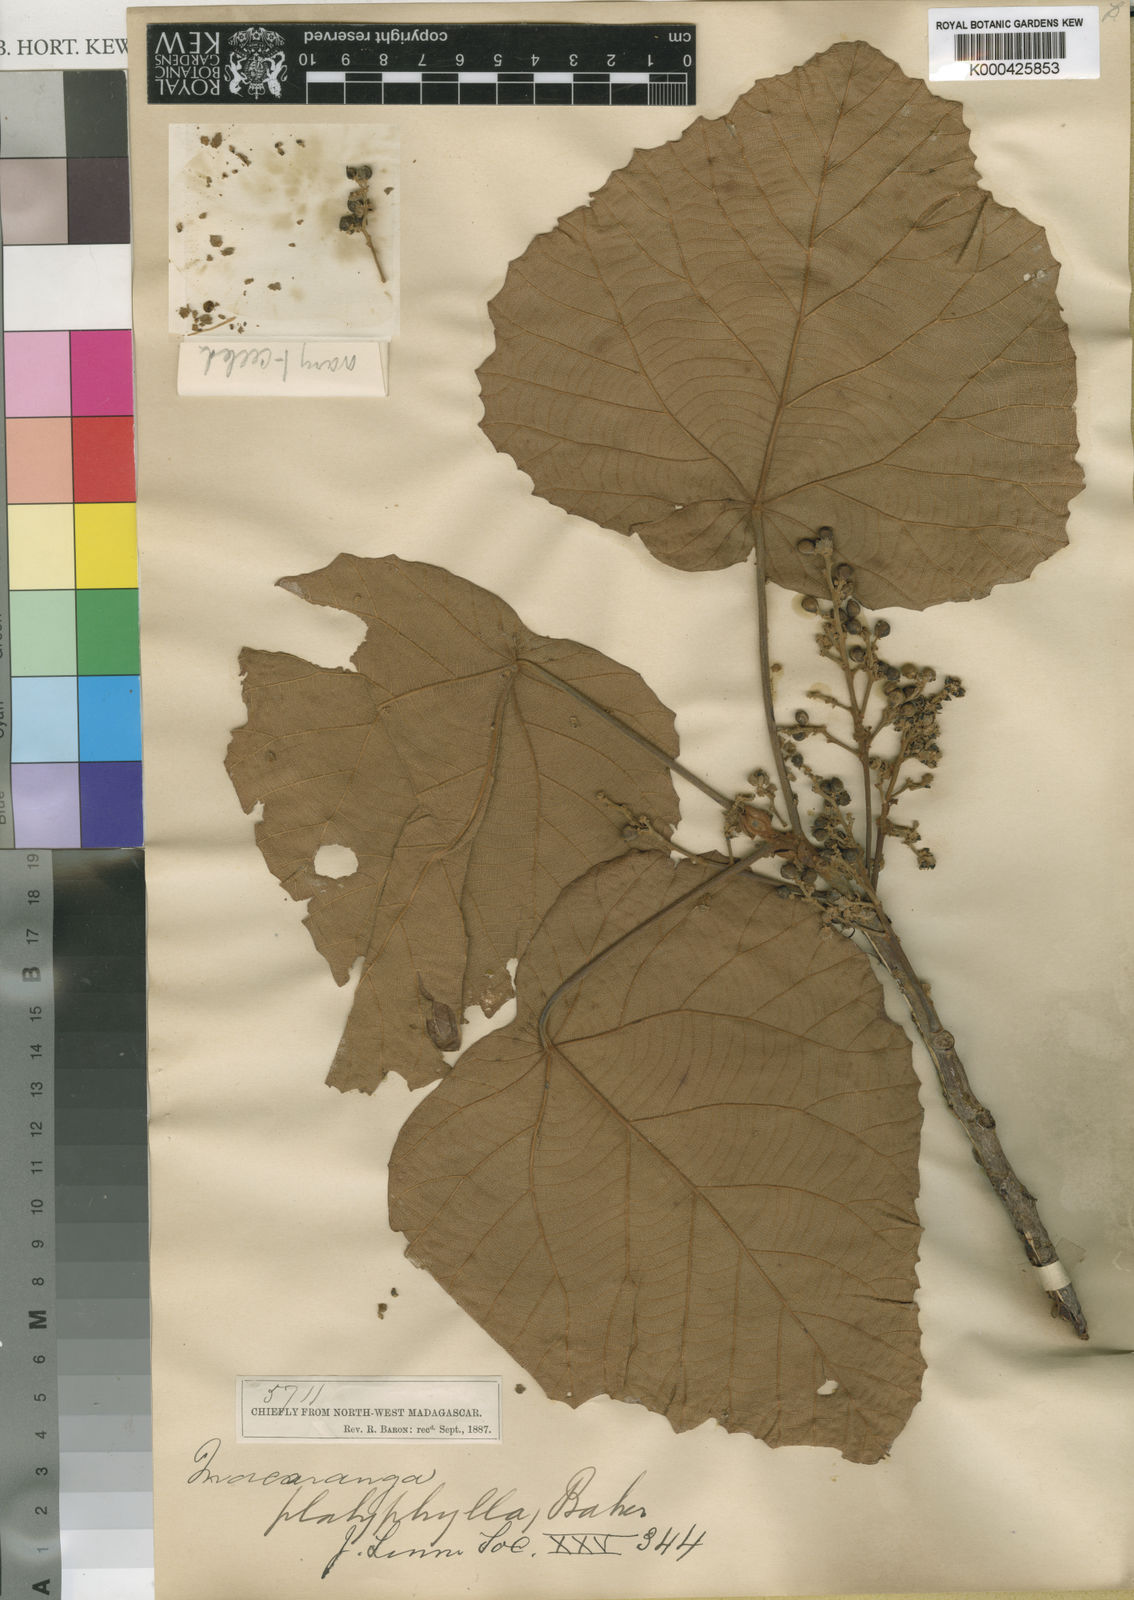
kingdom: Plantae
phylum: Tracheophyta
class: Magnoliopsida
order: Malpighiales
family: Euphorbiaceae
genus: Macaranga
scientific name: Macaranga ferruginea
